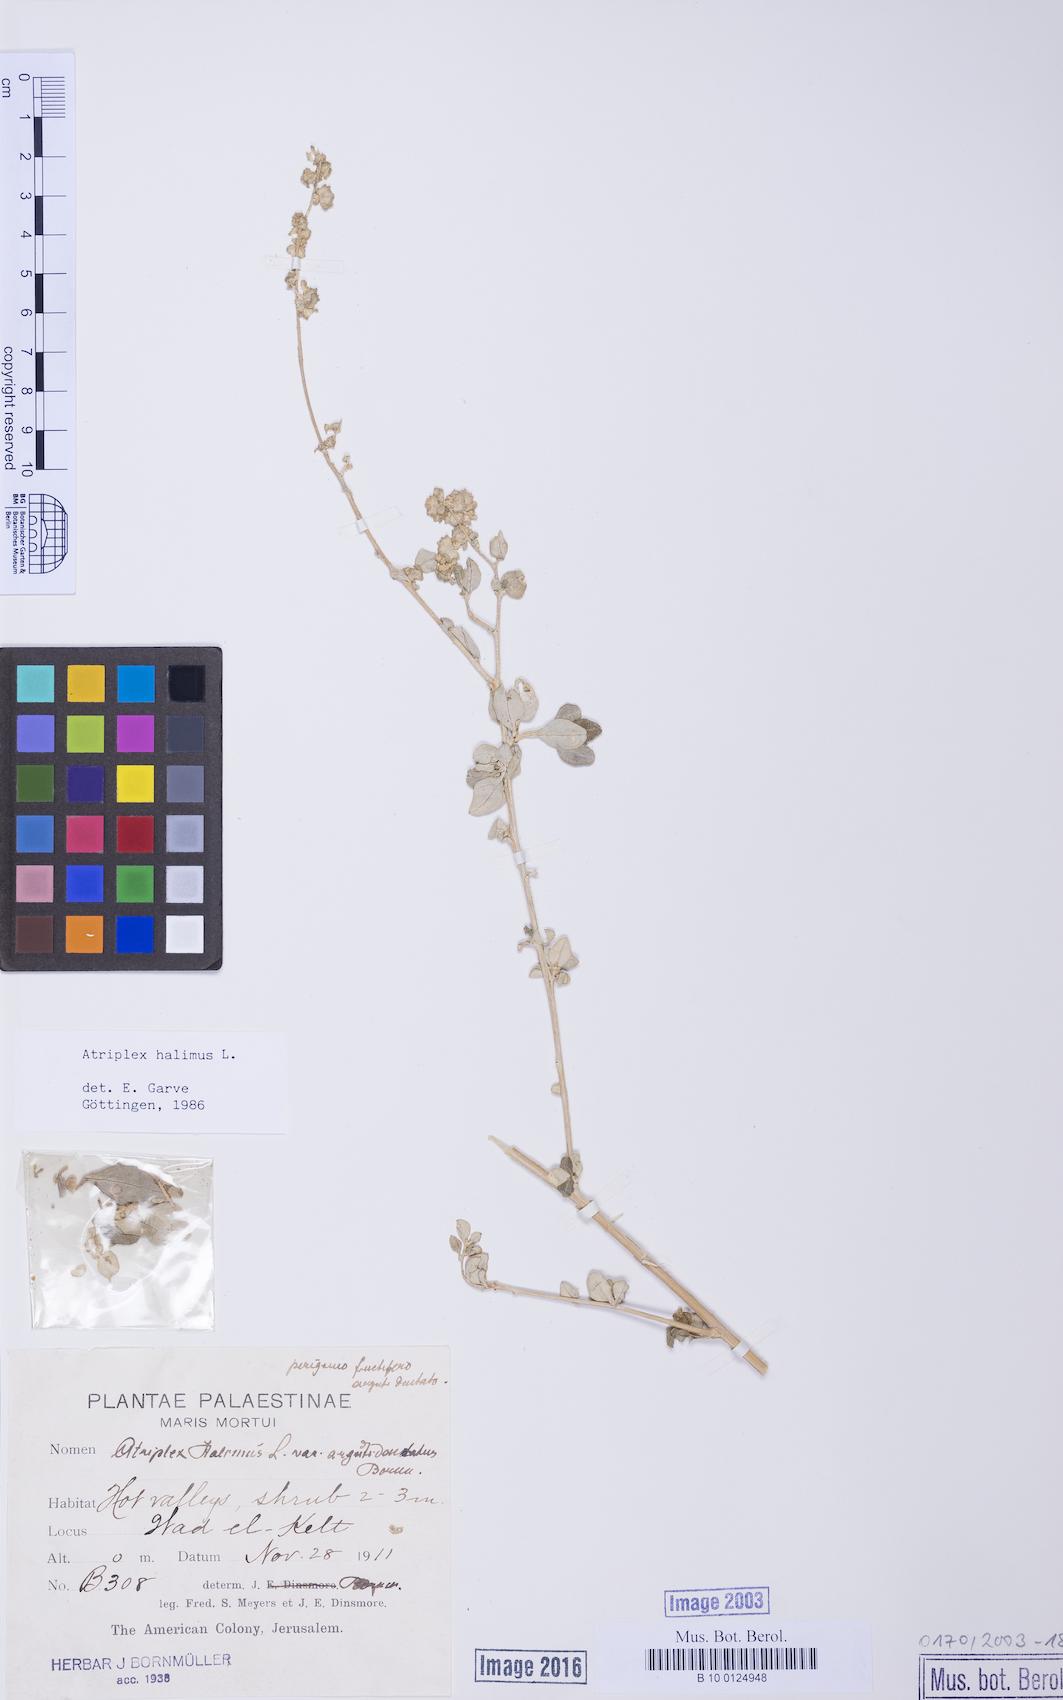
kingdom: Plantae
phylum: Tracheophyta
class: Magnoliopsida
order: Caryophyllales
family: Amaranthaceae
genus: Atriplex
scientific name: Atriplex halimus
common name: Shrubby orache
